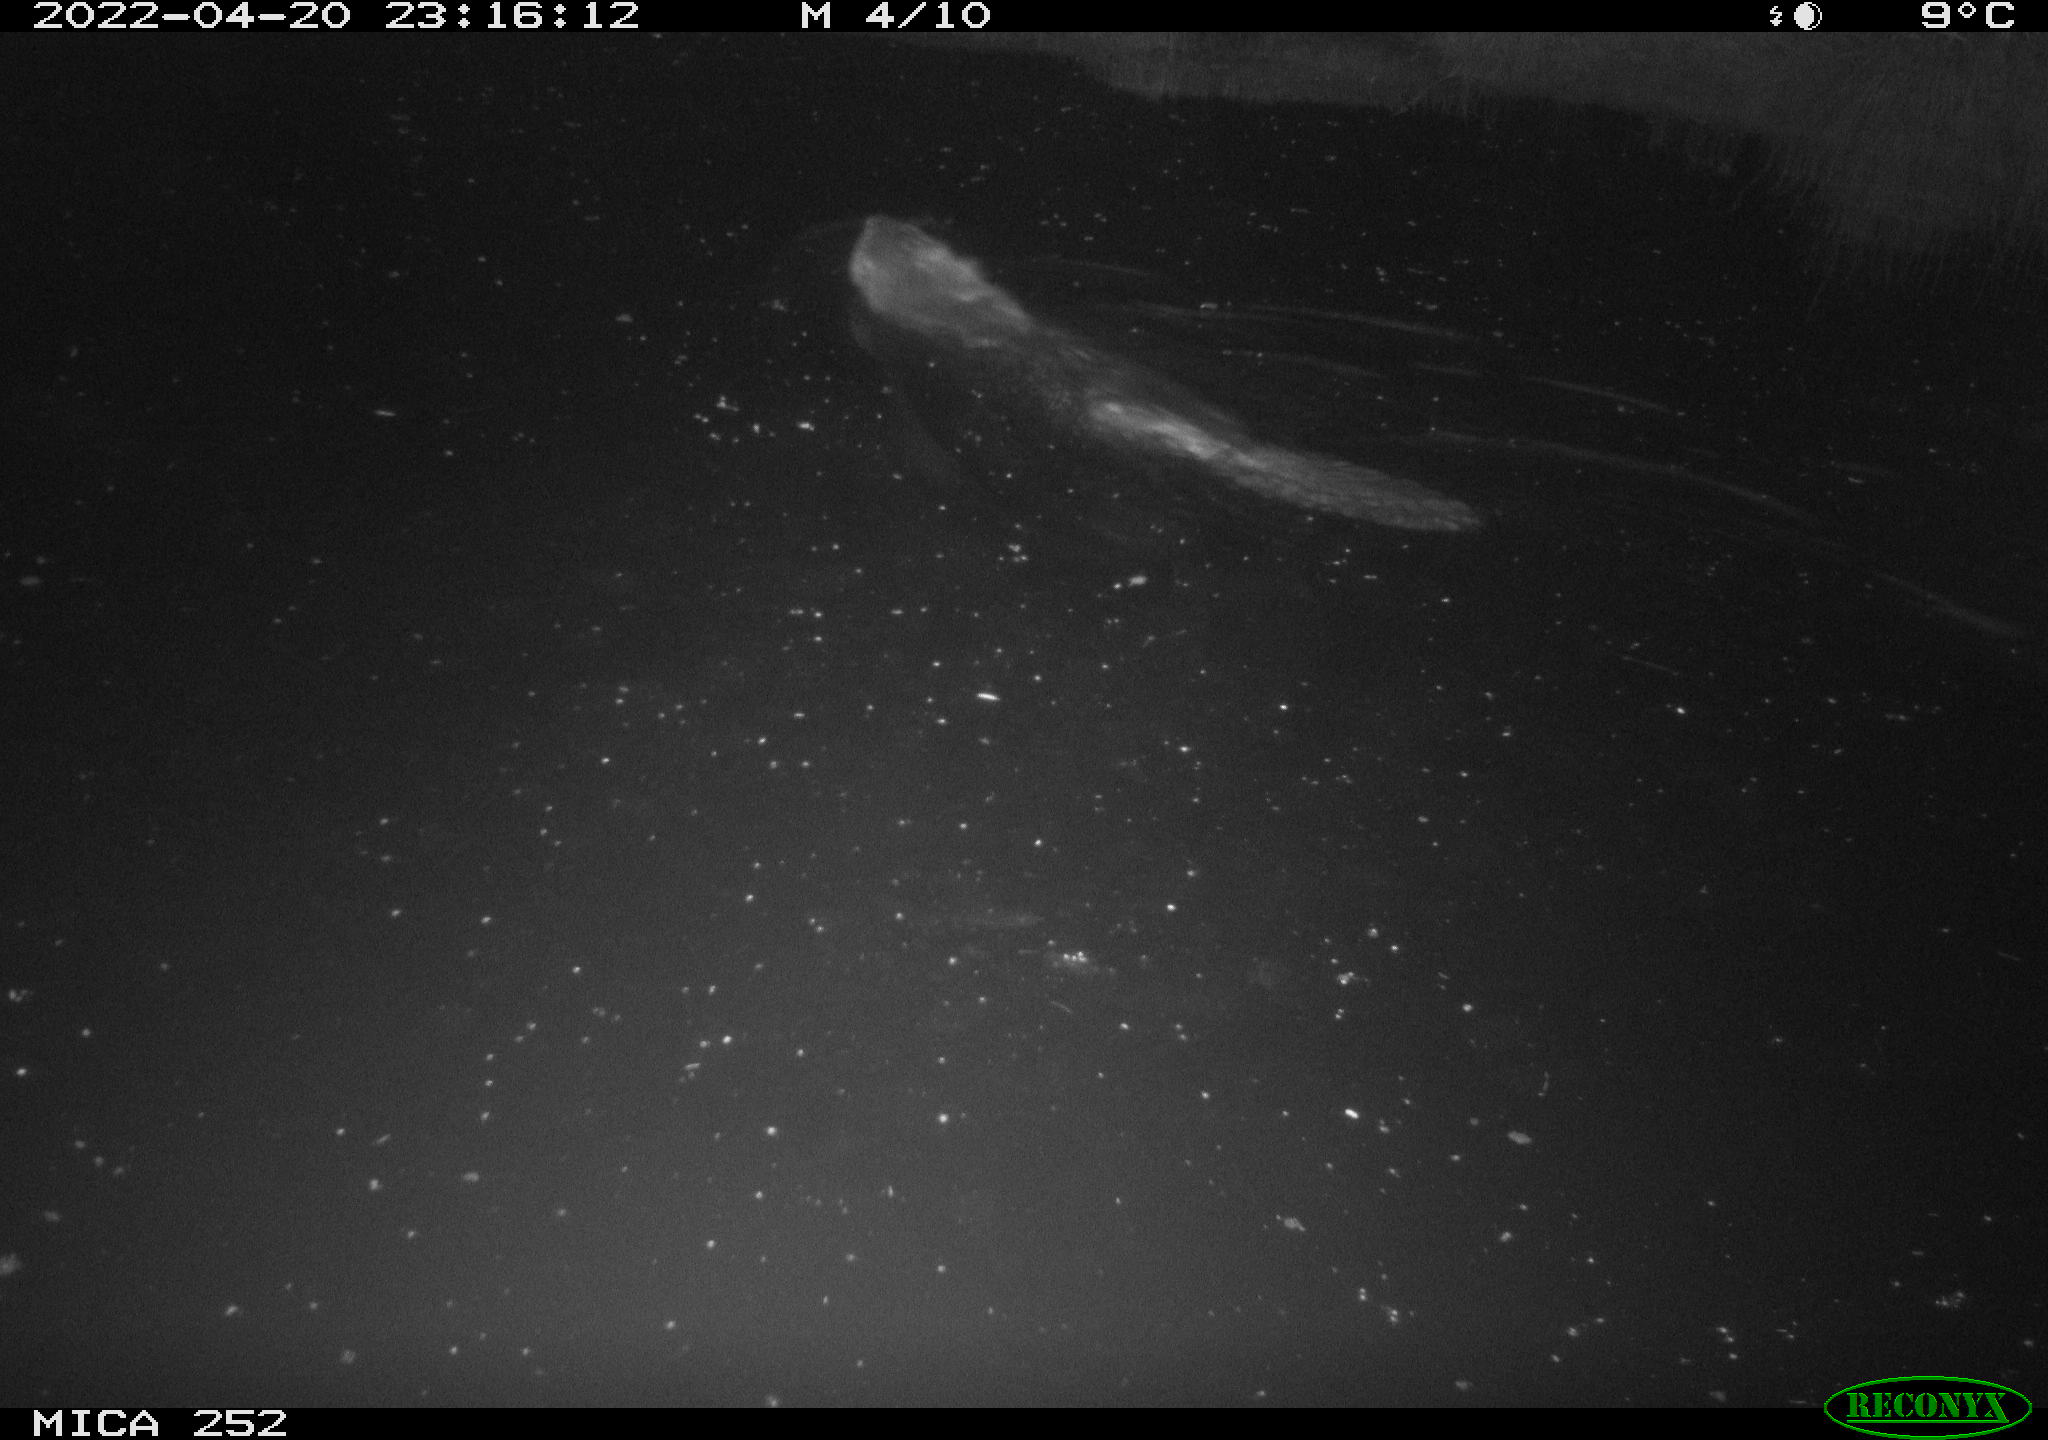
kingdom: Animalia
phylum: Chordata
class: Mammalia
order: Rodentia
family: Castoridae
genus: Castor
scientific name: Castor fiber
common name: Eurasian beaver
